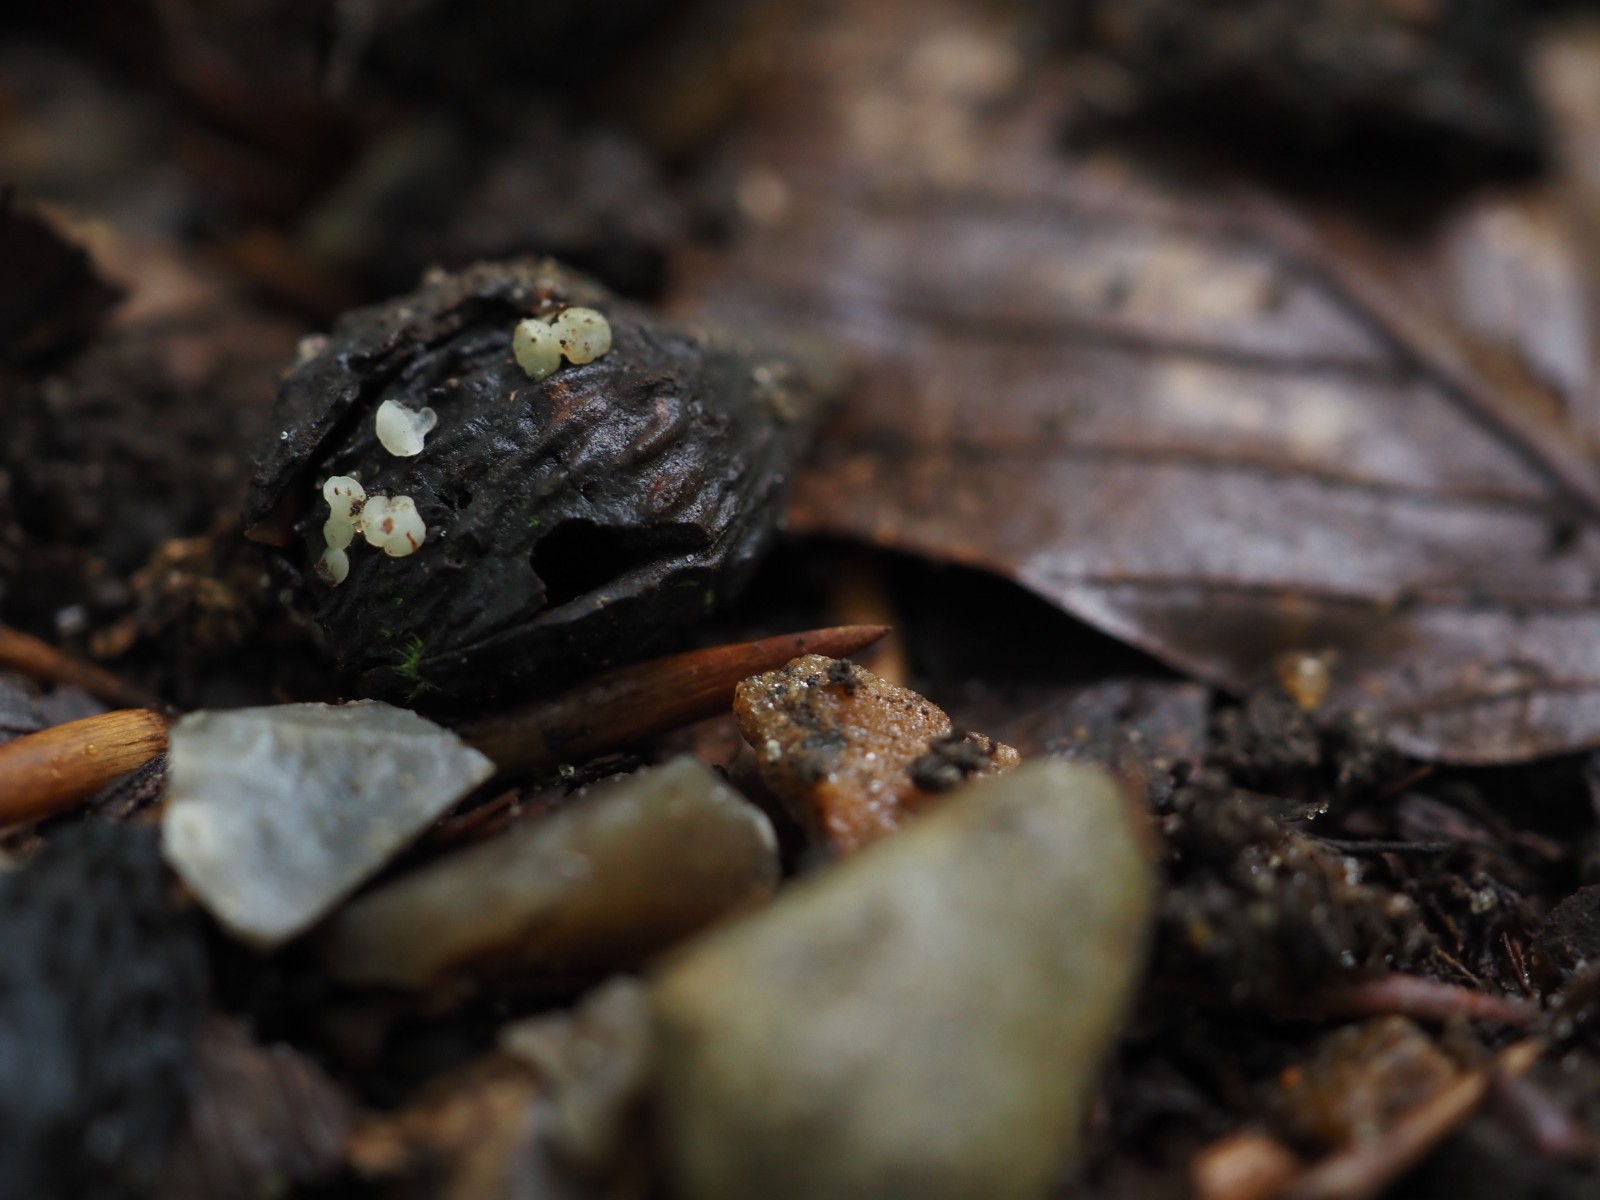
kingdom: Fungi
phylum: Ascomycota
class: Leotiomycetes
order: Helotiales
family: Helotiaceae
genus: Hymenoscyphus
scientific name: Hymenoscyphus fagineus
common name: vellugtende stilkskive
